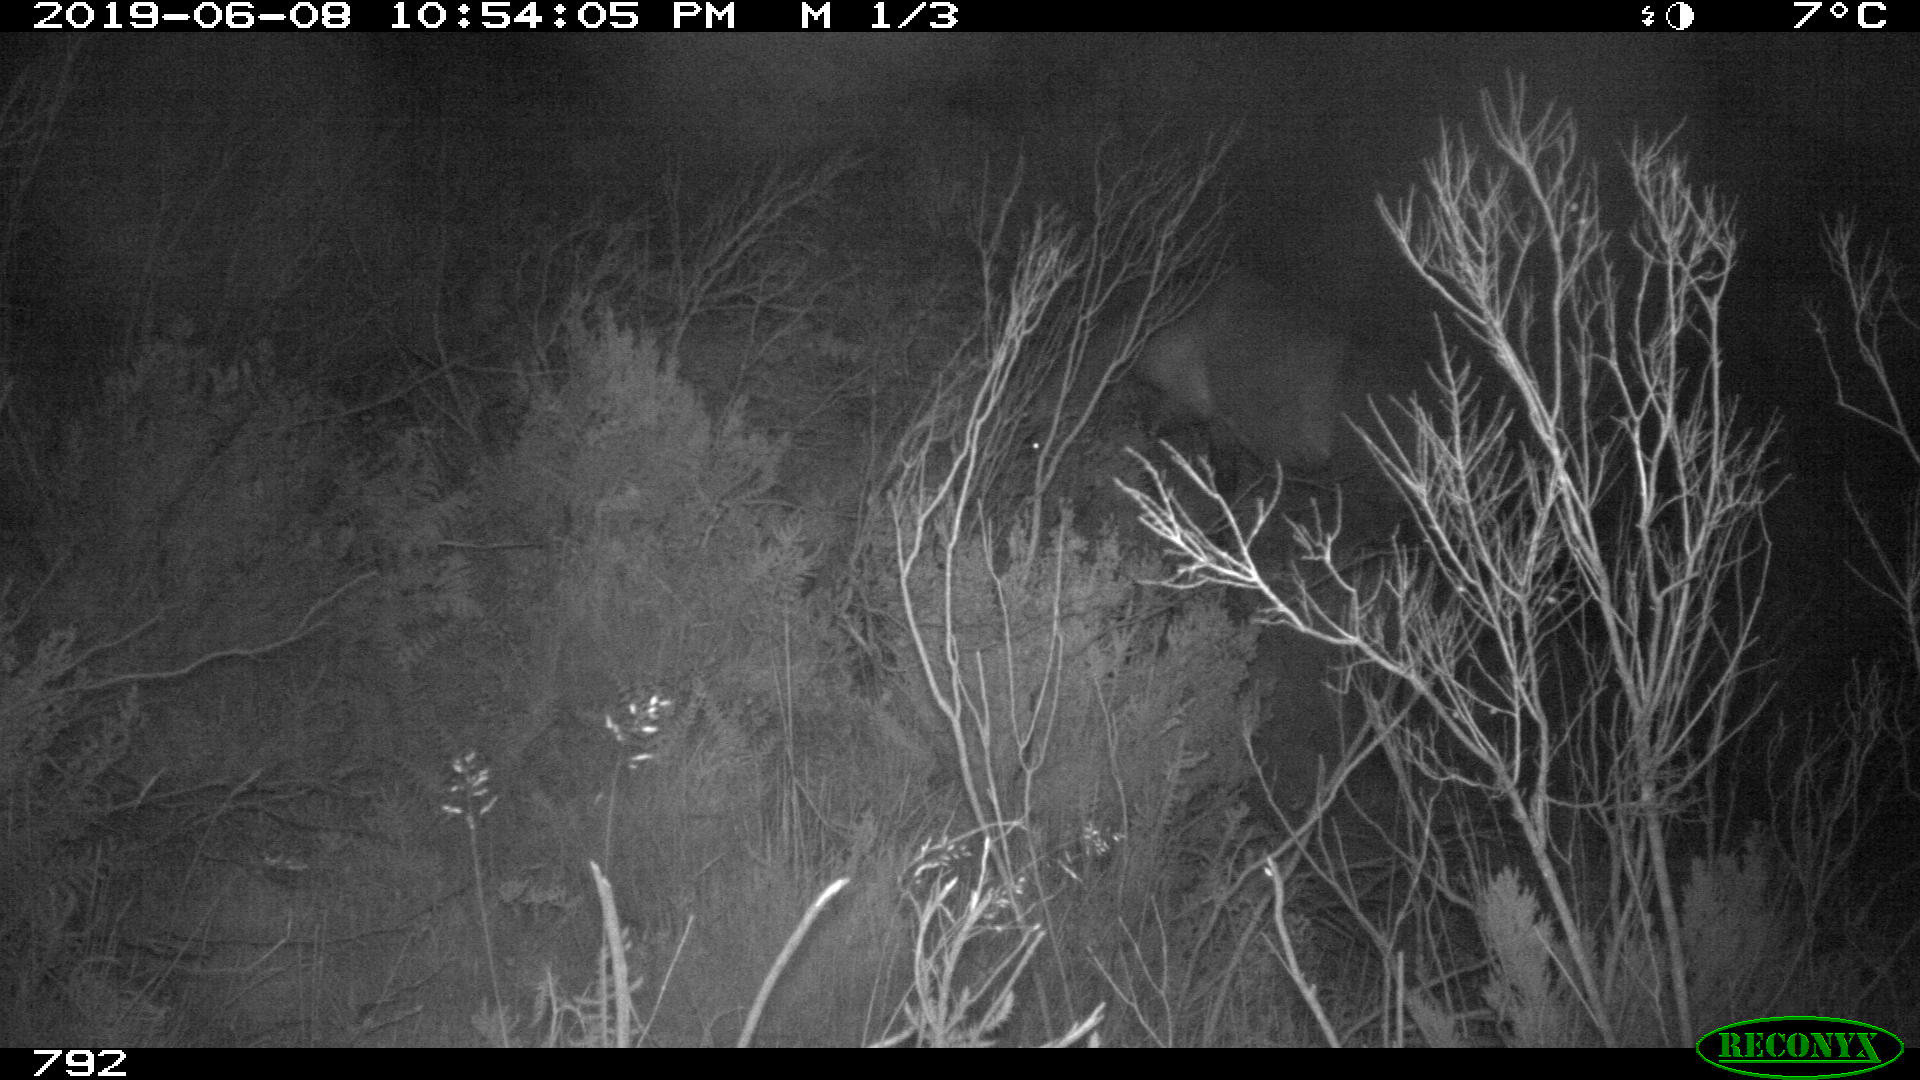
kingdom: Animalia
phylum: Chordata
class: Mammalia
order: Perissodactyla
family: Equidae
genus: Equus
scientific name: Equus caballus
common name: Horse
